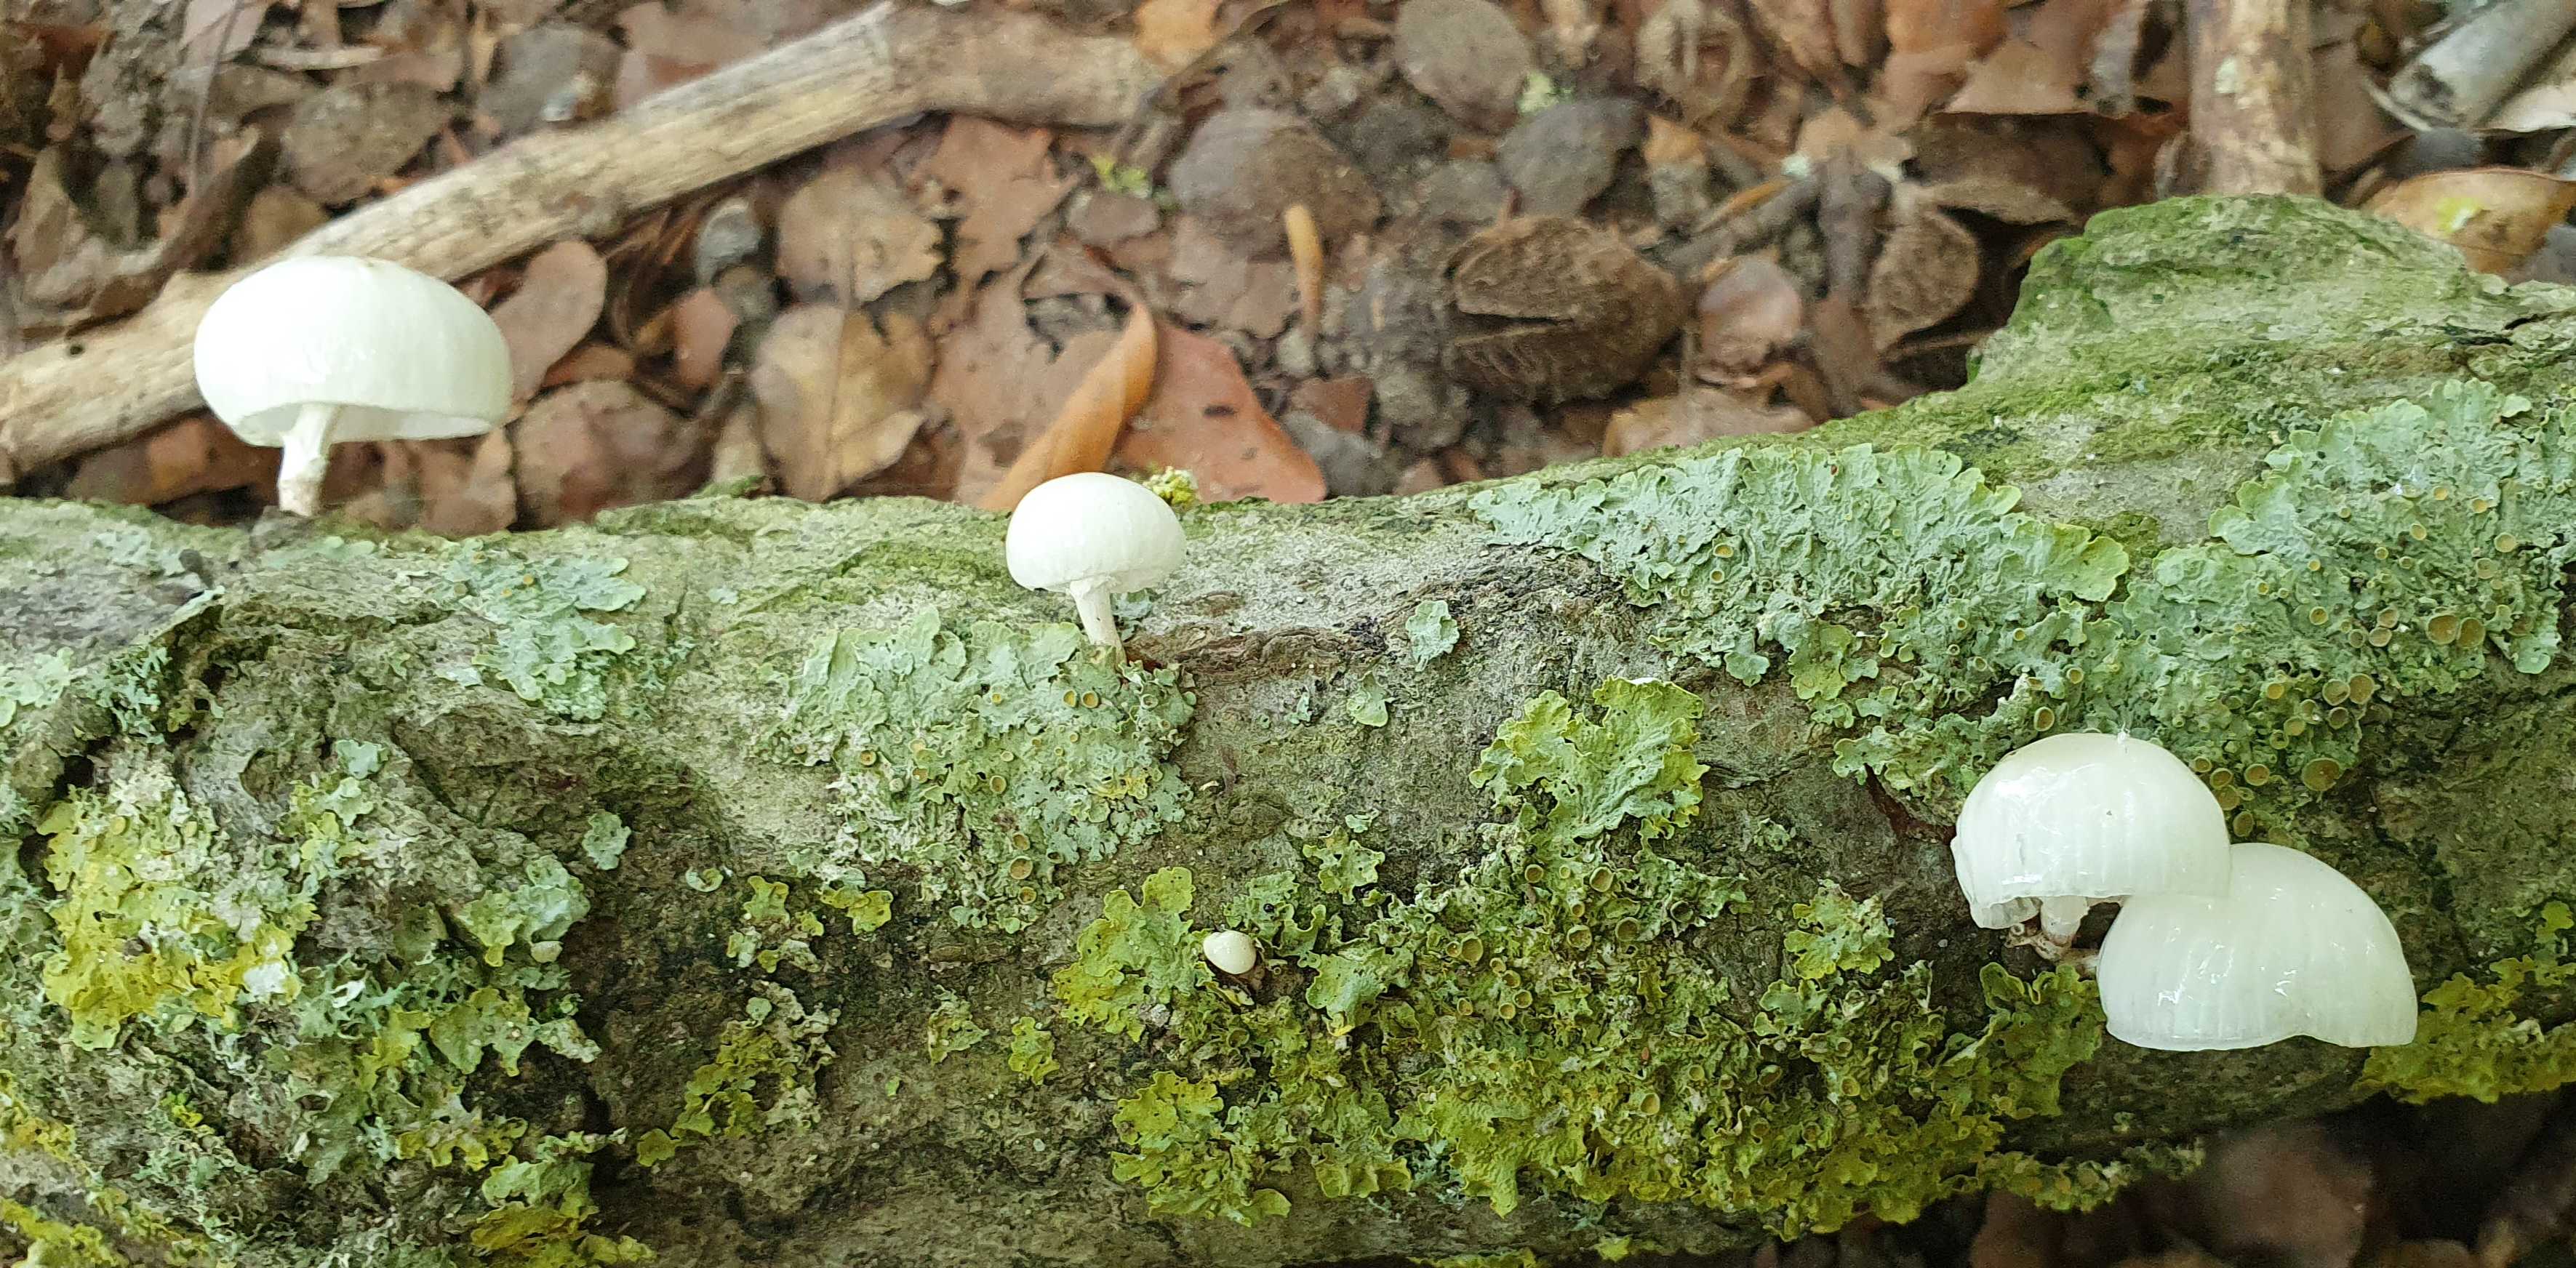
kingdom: Fungi
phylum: Basidiomycota
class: Agaricomycetes
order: Agaricales
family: Physalacriaceae
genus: Mucidula
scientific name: Mucidula mucida
